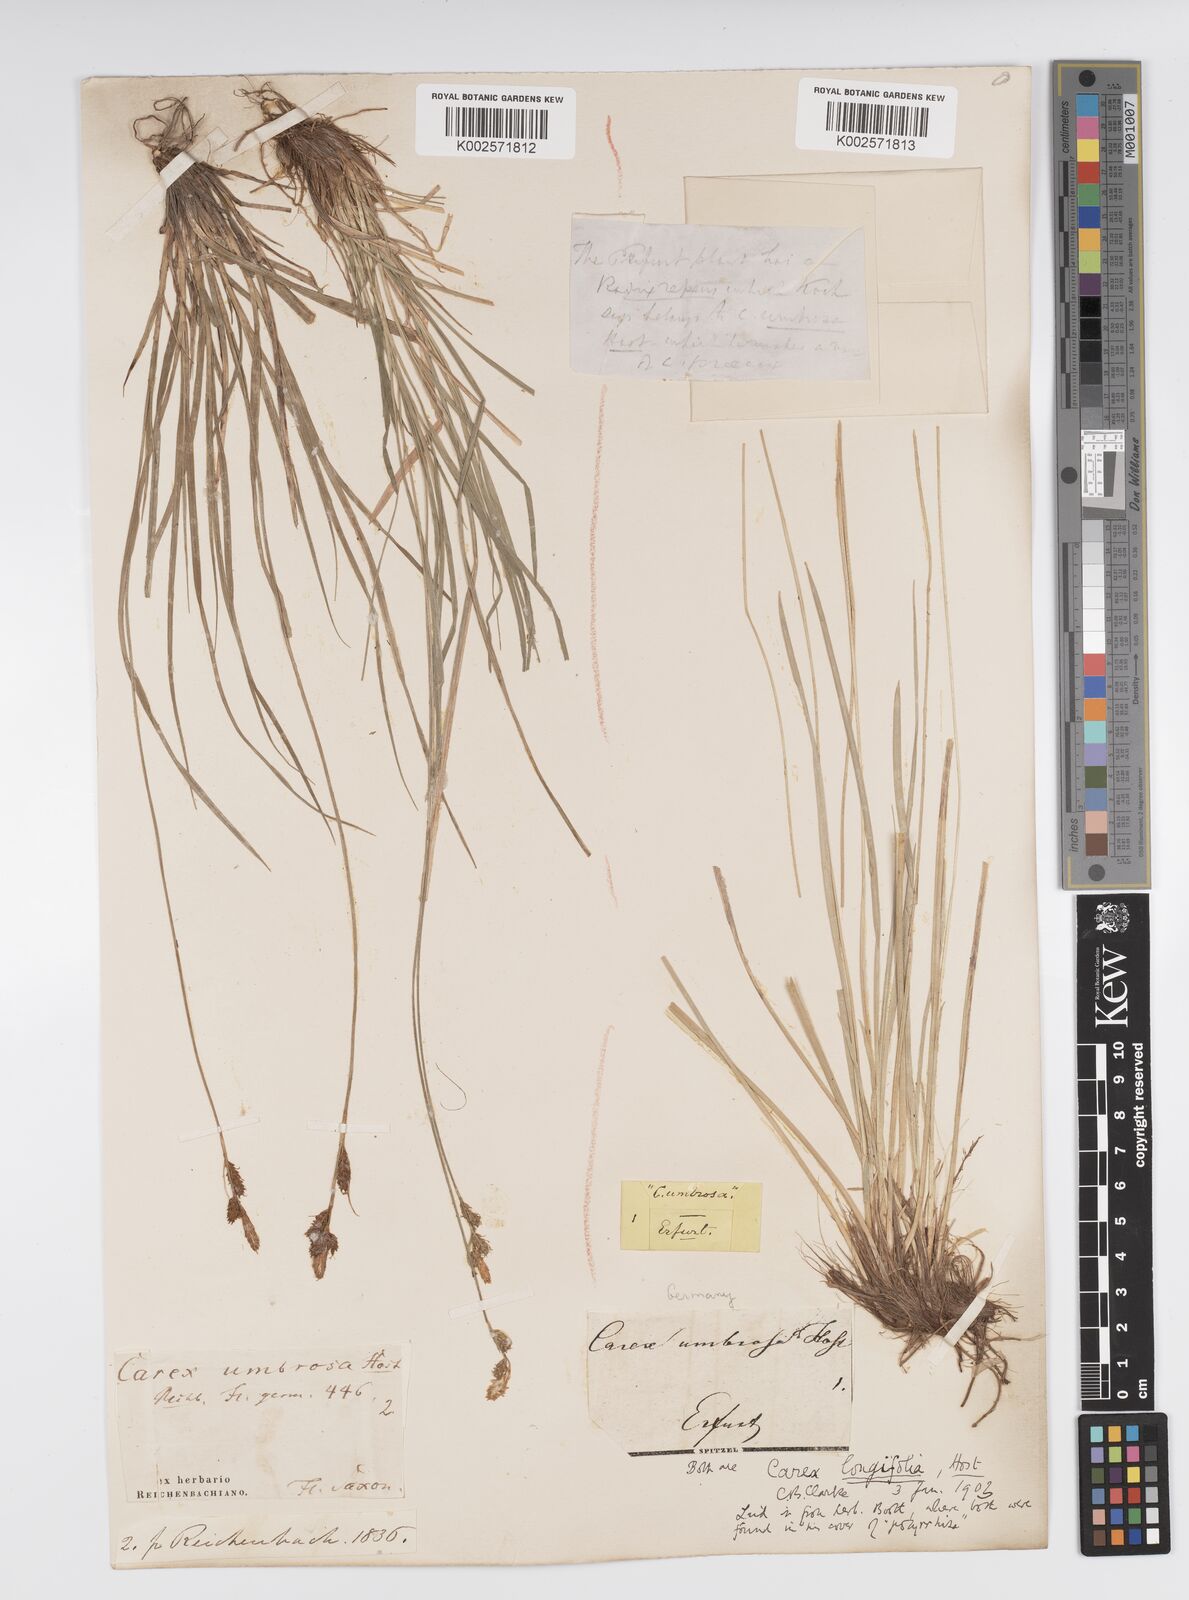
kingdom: Plantae
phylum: Tracheophyta
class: Liliopsida
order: Poales
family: Cyperaceae
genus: Carex
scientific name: Carex umbrosa
